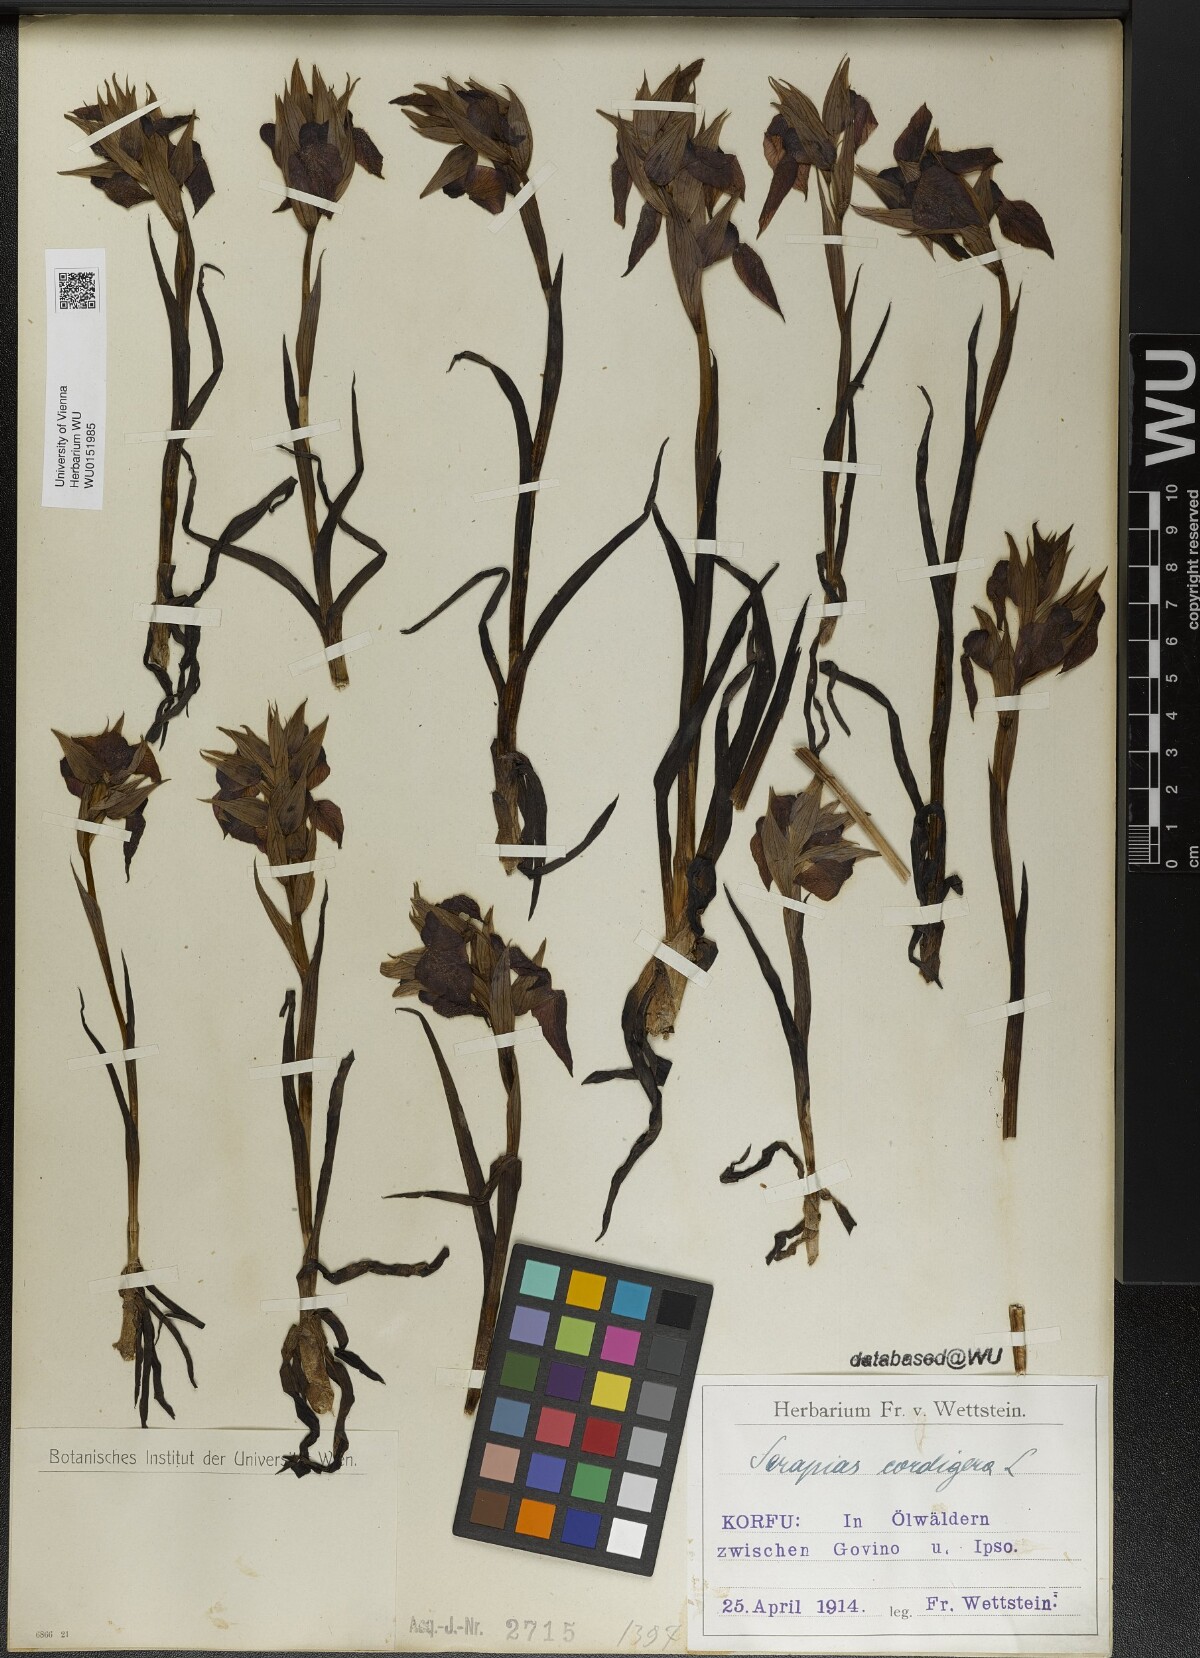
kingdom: Plantae
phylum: Tracheophyta
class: Liliopsida
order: Asparagales
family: Orchidaceae
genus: Serapias
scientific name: Serapias cordigera
